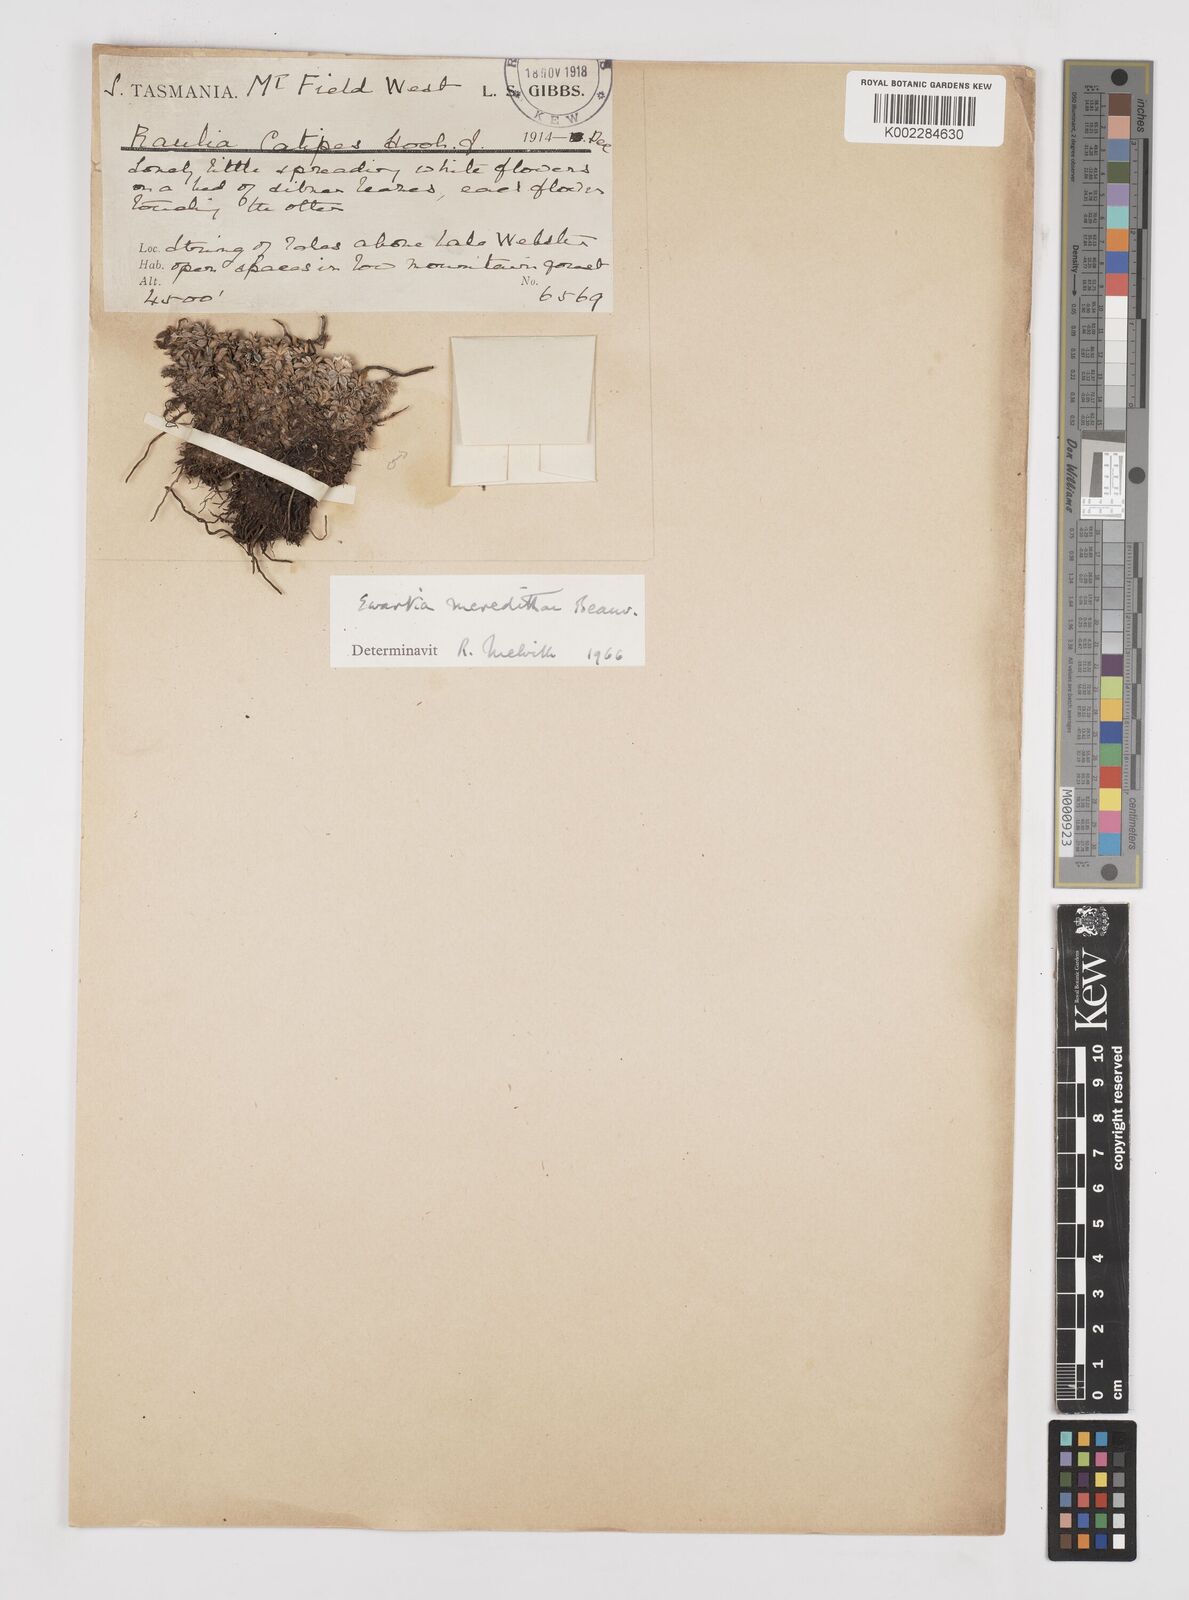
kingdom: Plantae
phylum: Tracheophyta
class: Magnoliopsida
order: Asterales
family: Asteraceae
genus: Ewartia
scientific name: Ewartia meredithae
